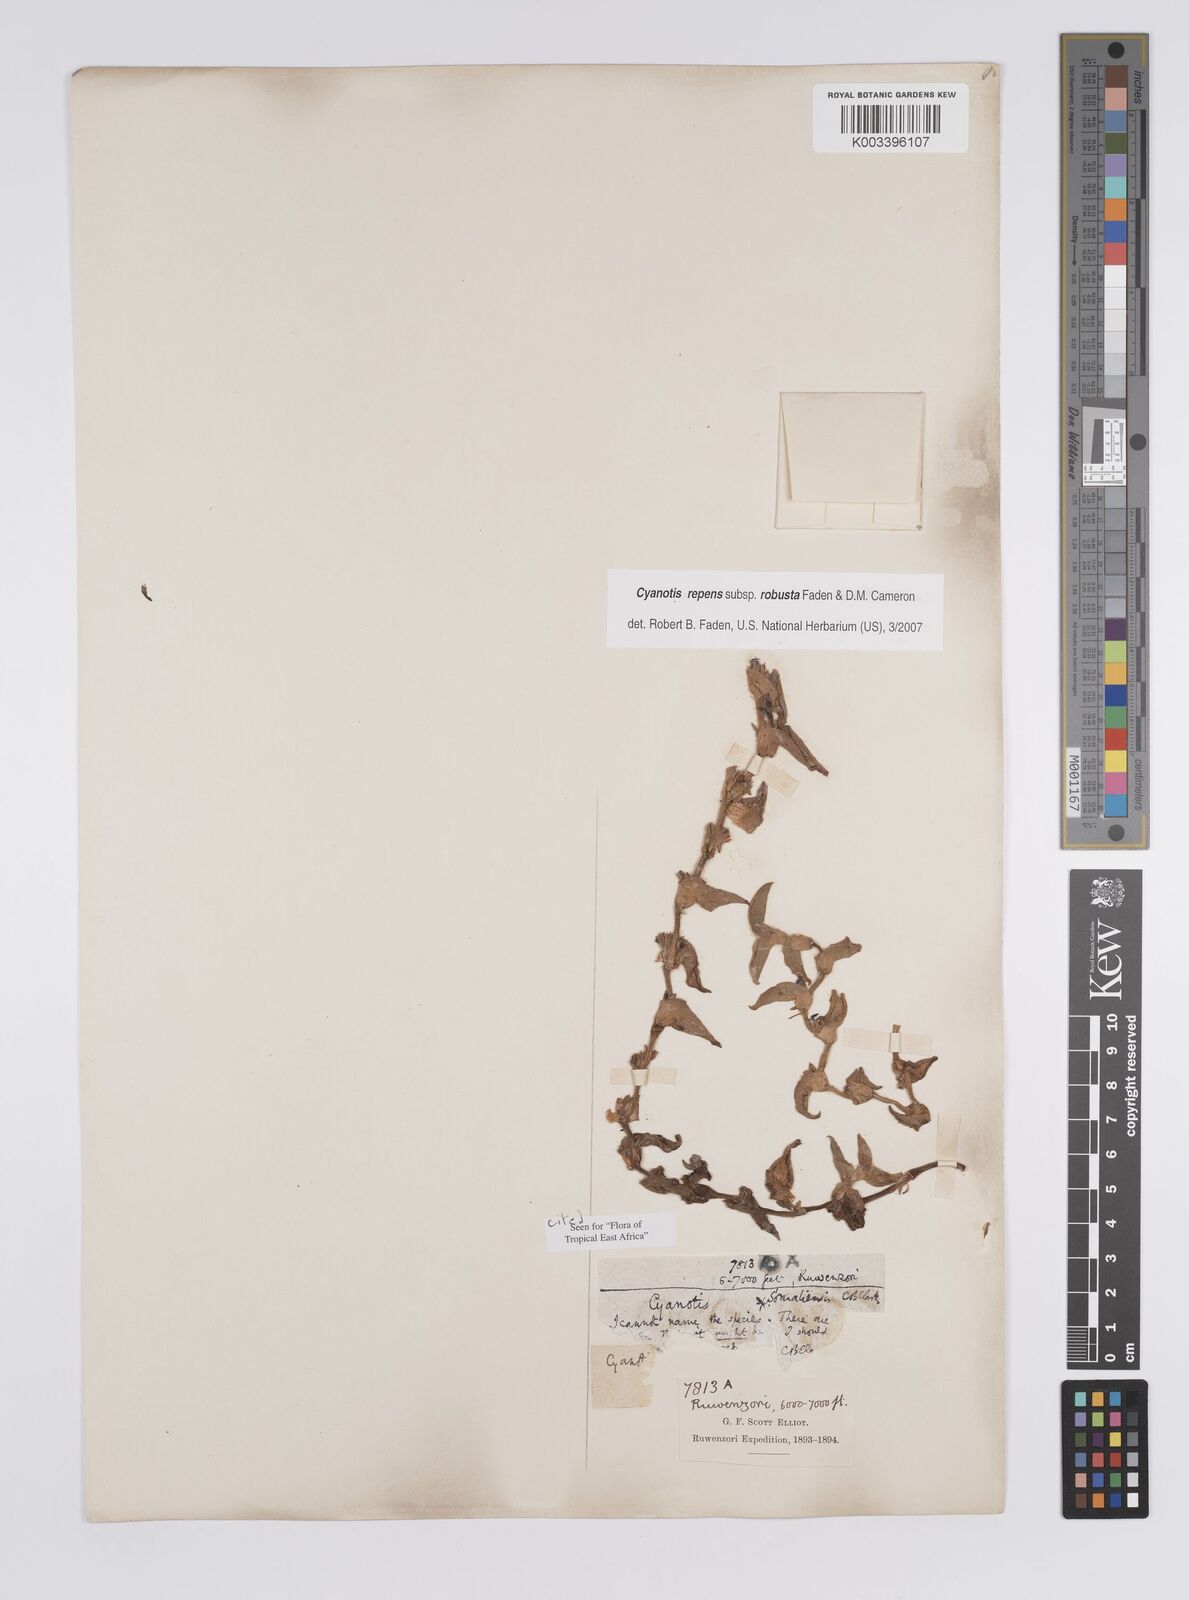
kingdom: Plantae
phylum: Tracheophyta
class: Liliopsida
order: Commelinales
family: Commelinaceae
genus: Cyanotis
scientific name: Cyanotis repens
